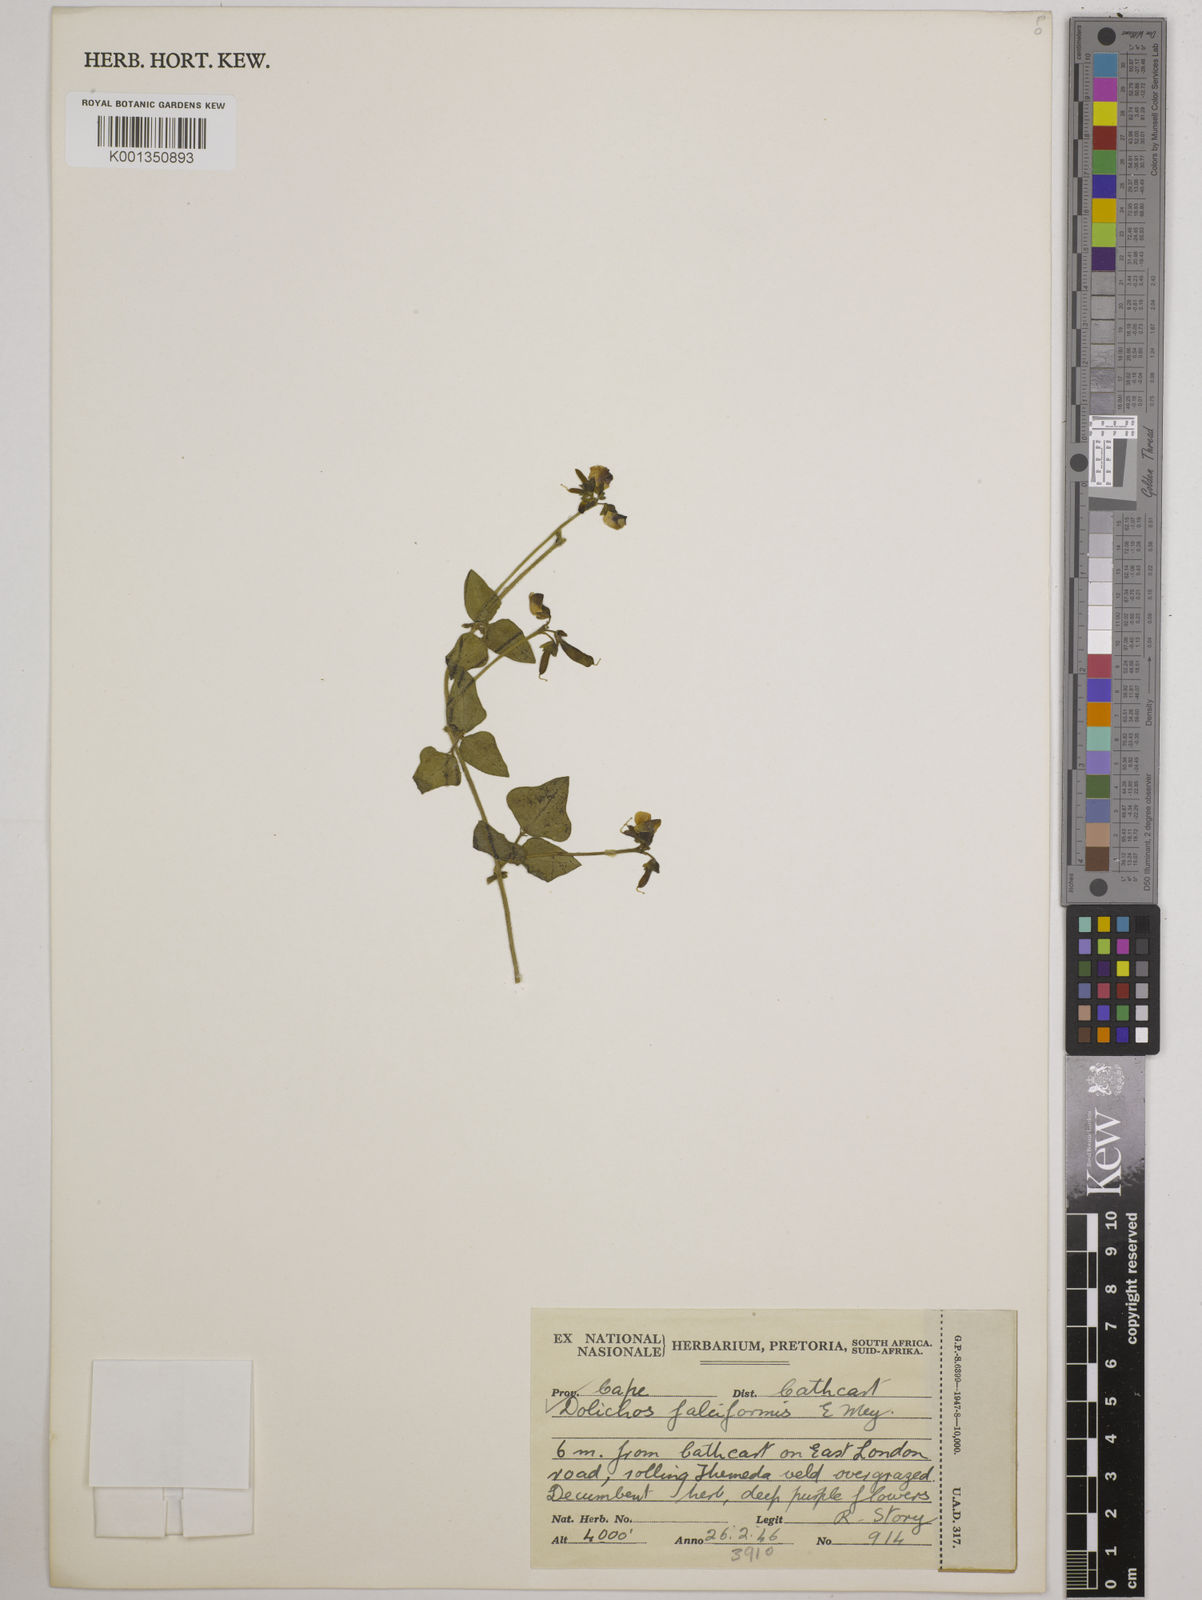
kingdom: Plantae
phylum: Tracheophyta
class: Magnoliopsida
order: Fabales
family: Fabaceae
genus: Dolichos
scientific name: Dolichos falciformis
